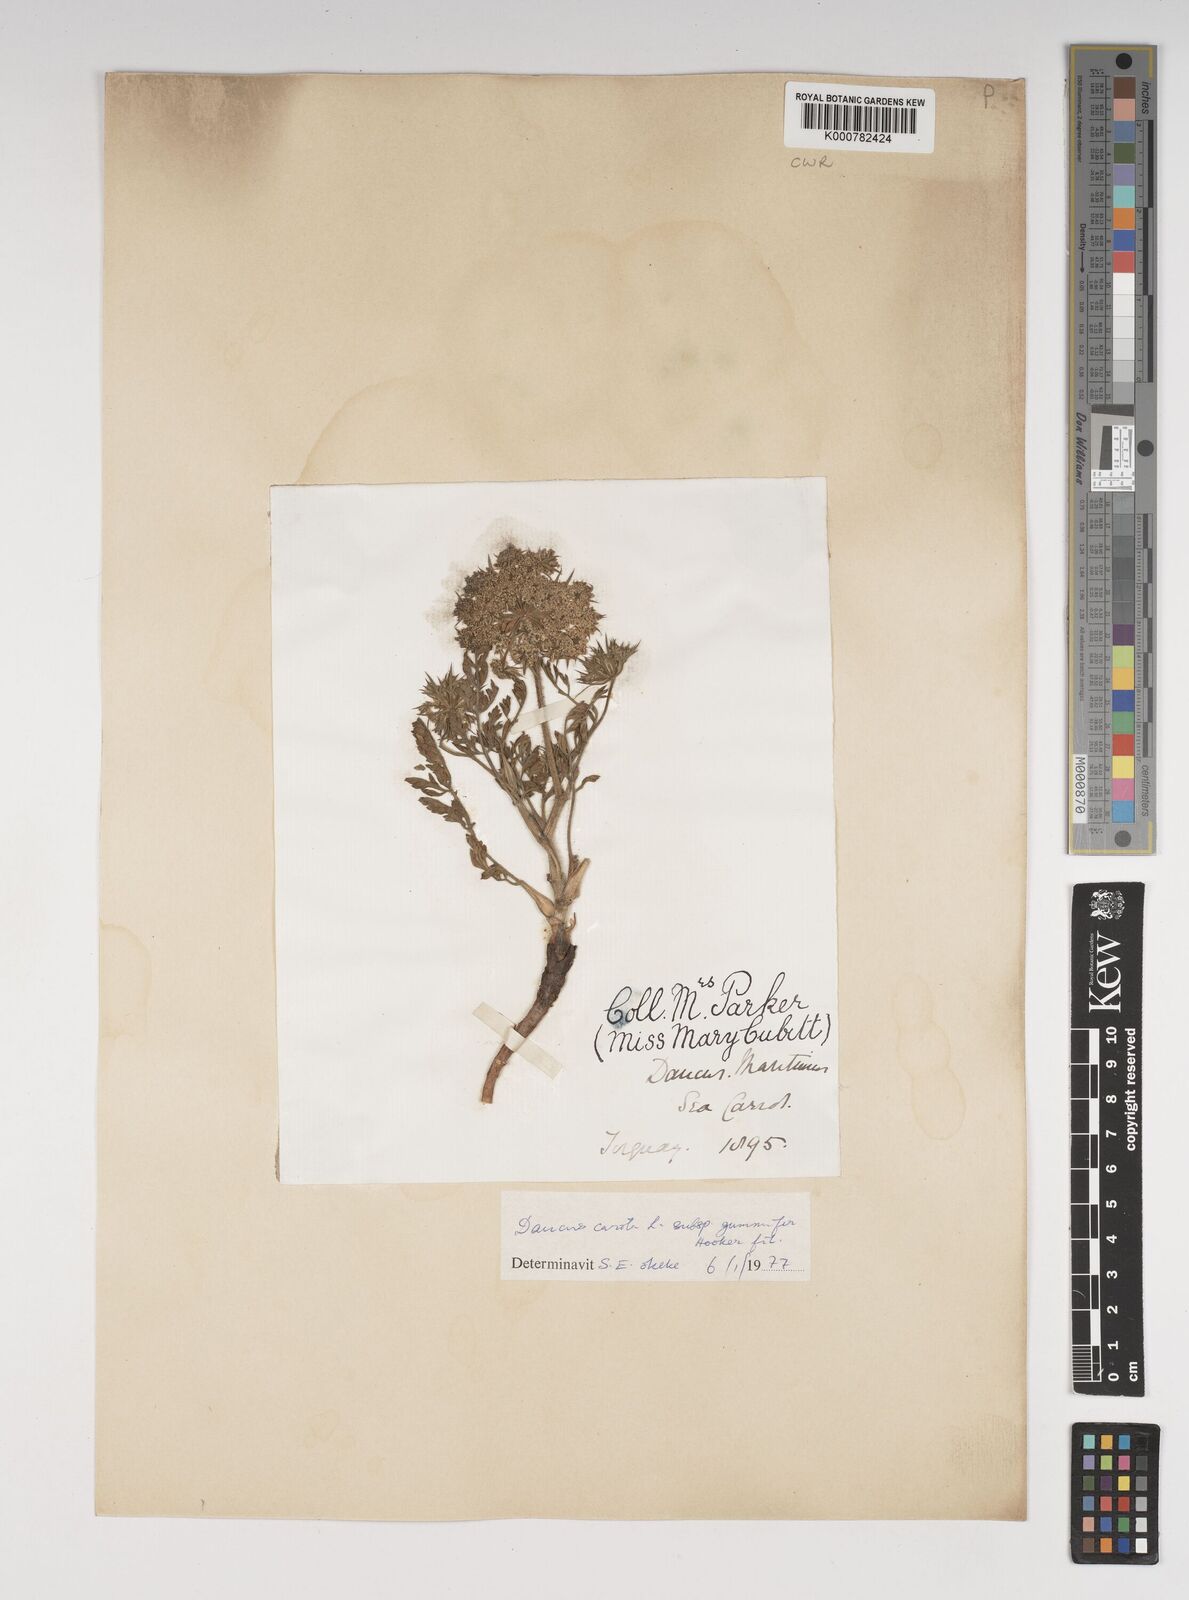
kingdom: Plantae
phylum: Tracheophyta
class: Magnoliopsida
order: Apiales
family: Apiaceae
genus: Daucus
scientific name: Daucus carota
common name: Wild carrot
